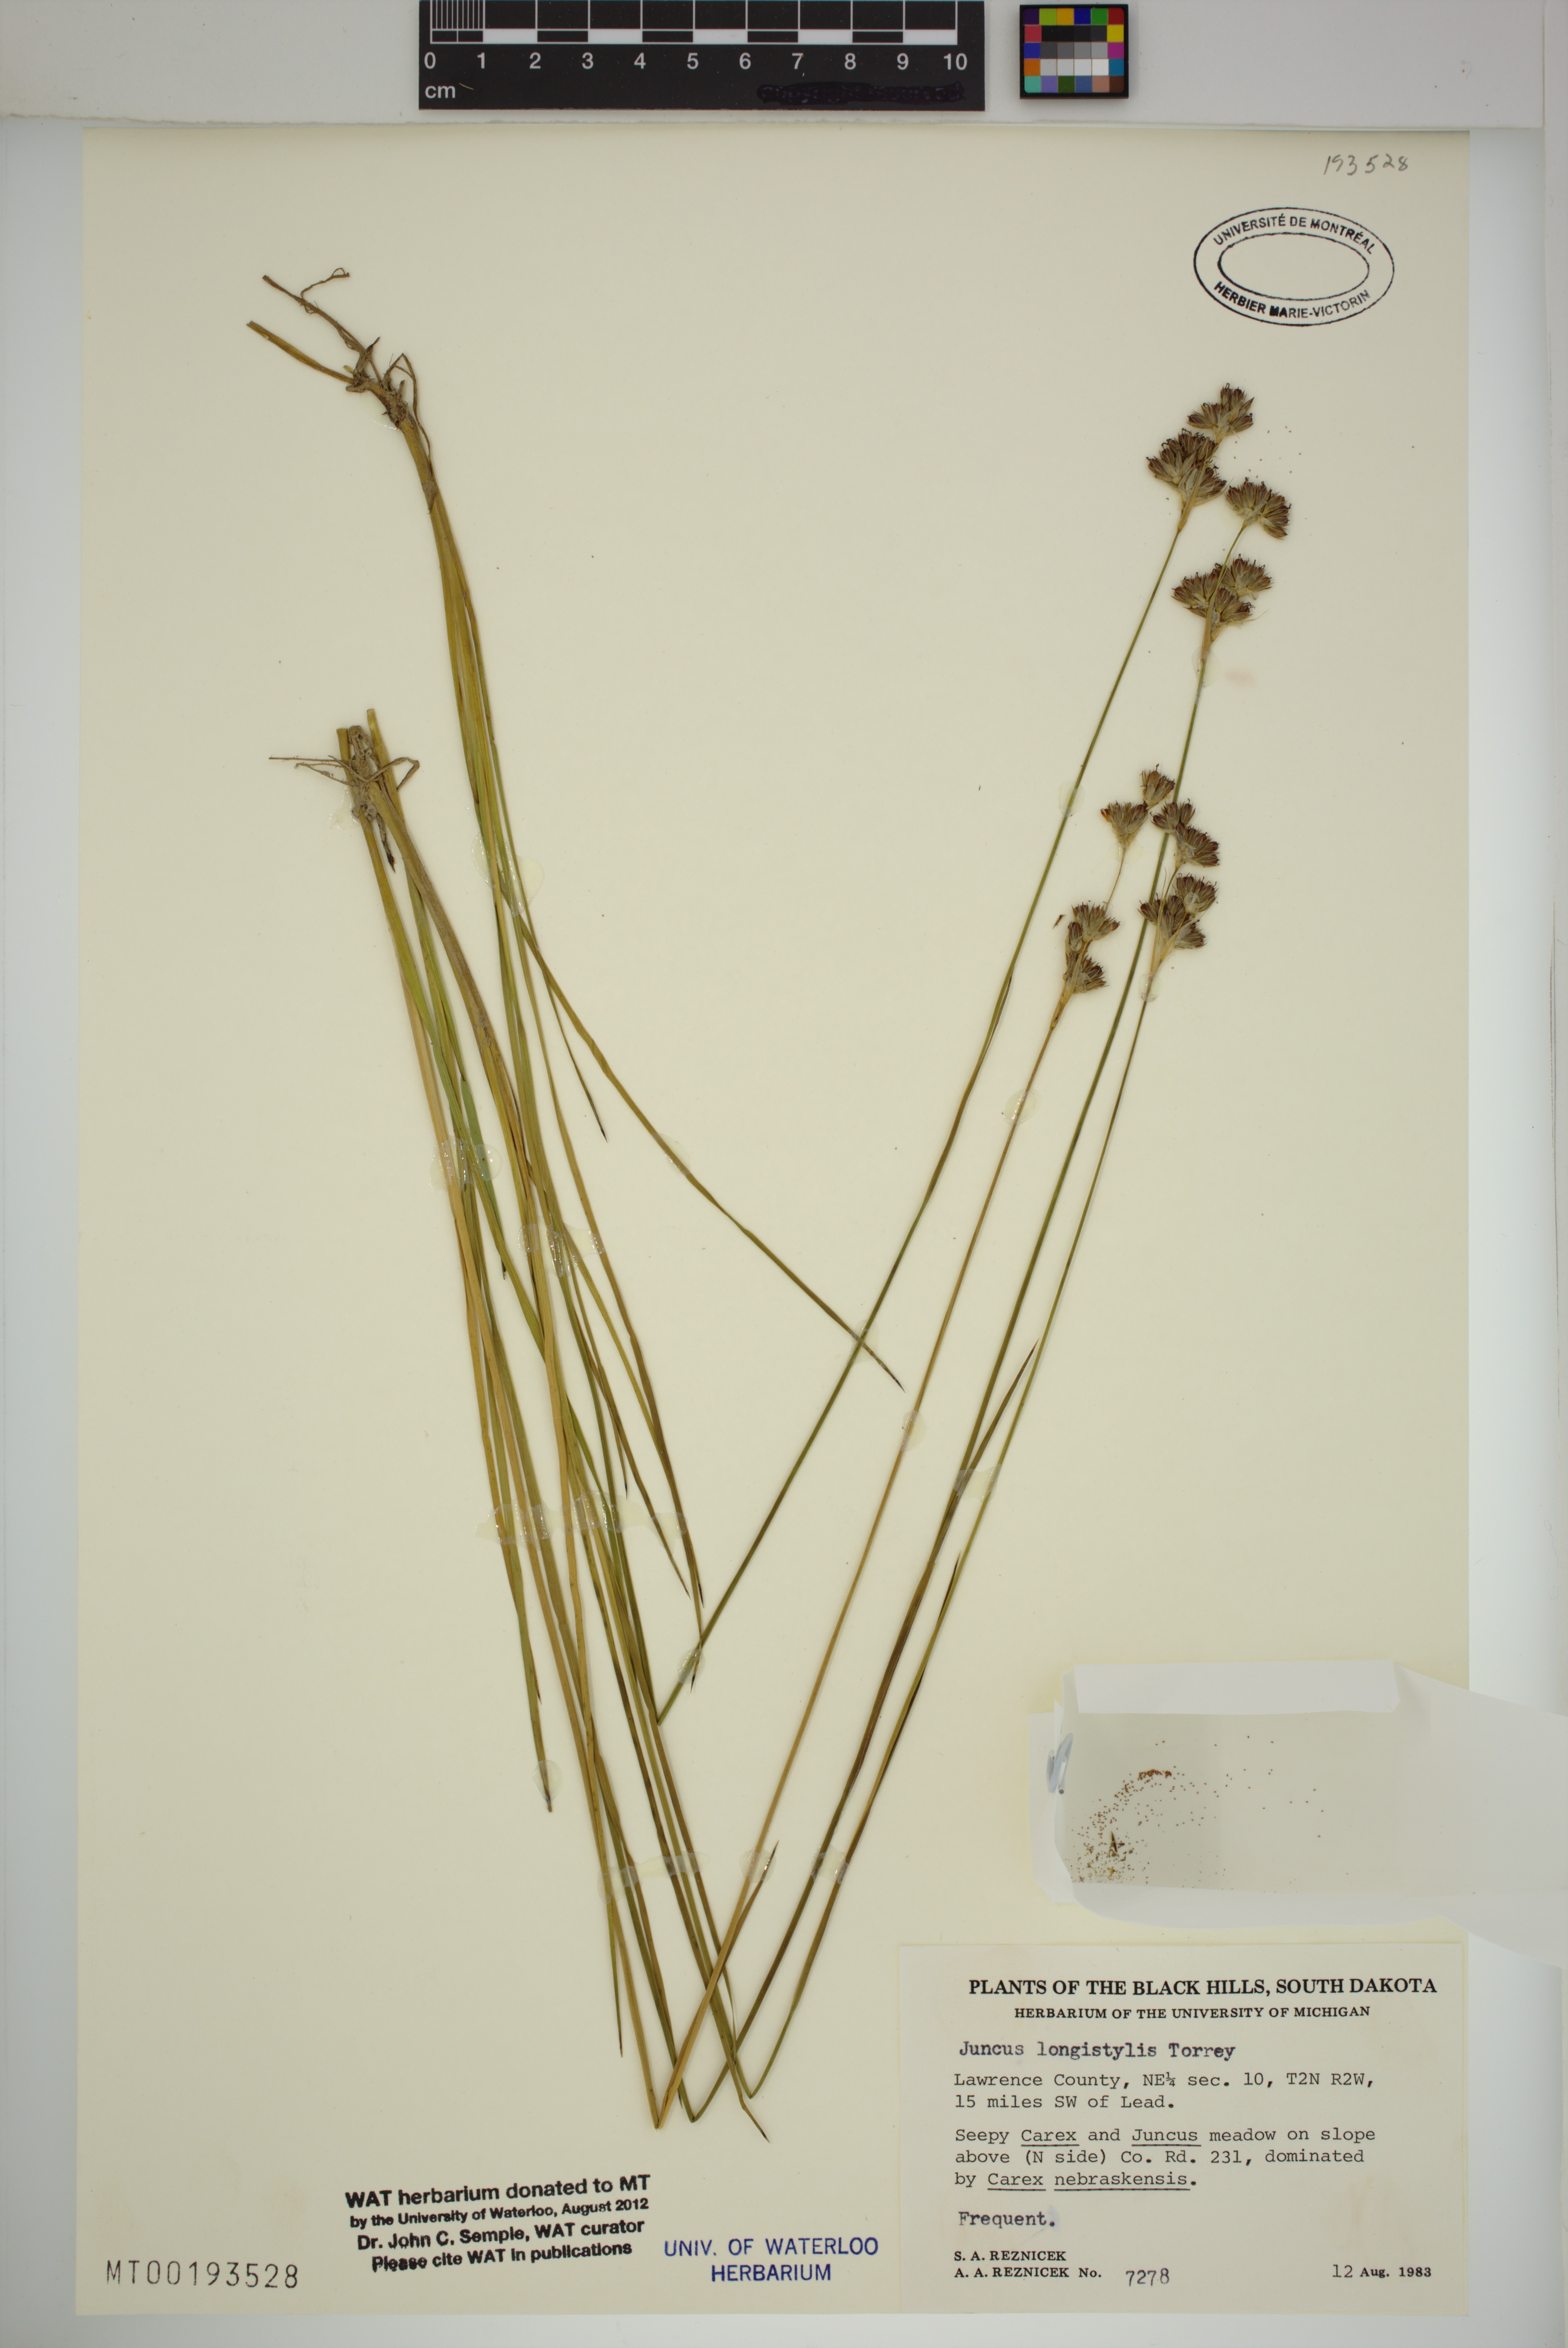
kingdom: Plantae
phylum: Tracheophyta
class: Liliopsida
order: Poales
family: Juncaceae
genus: Juncus
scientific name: Juncus longistylis
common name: Long-style rush
